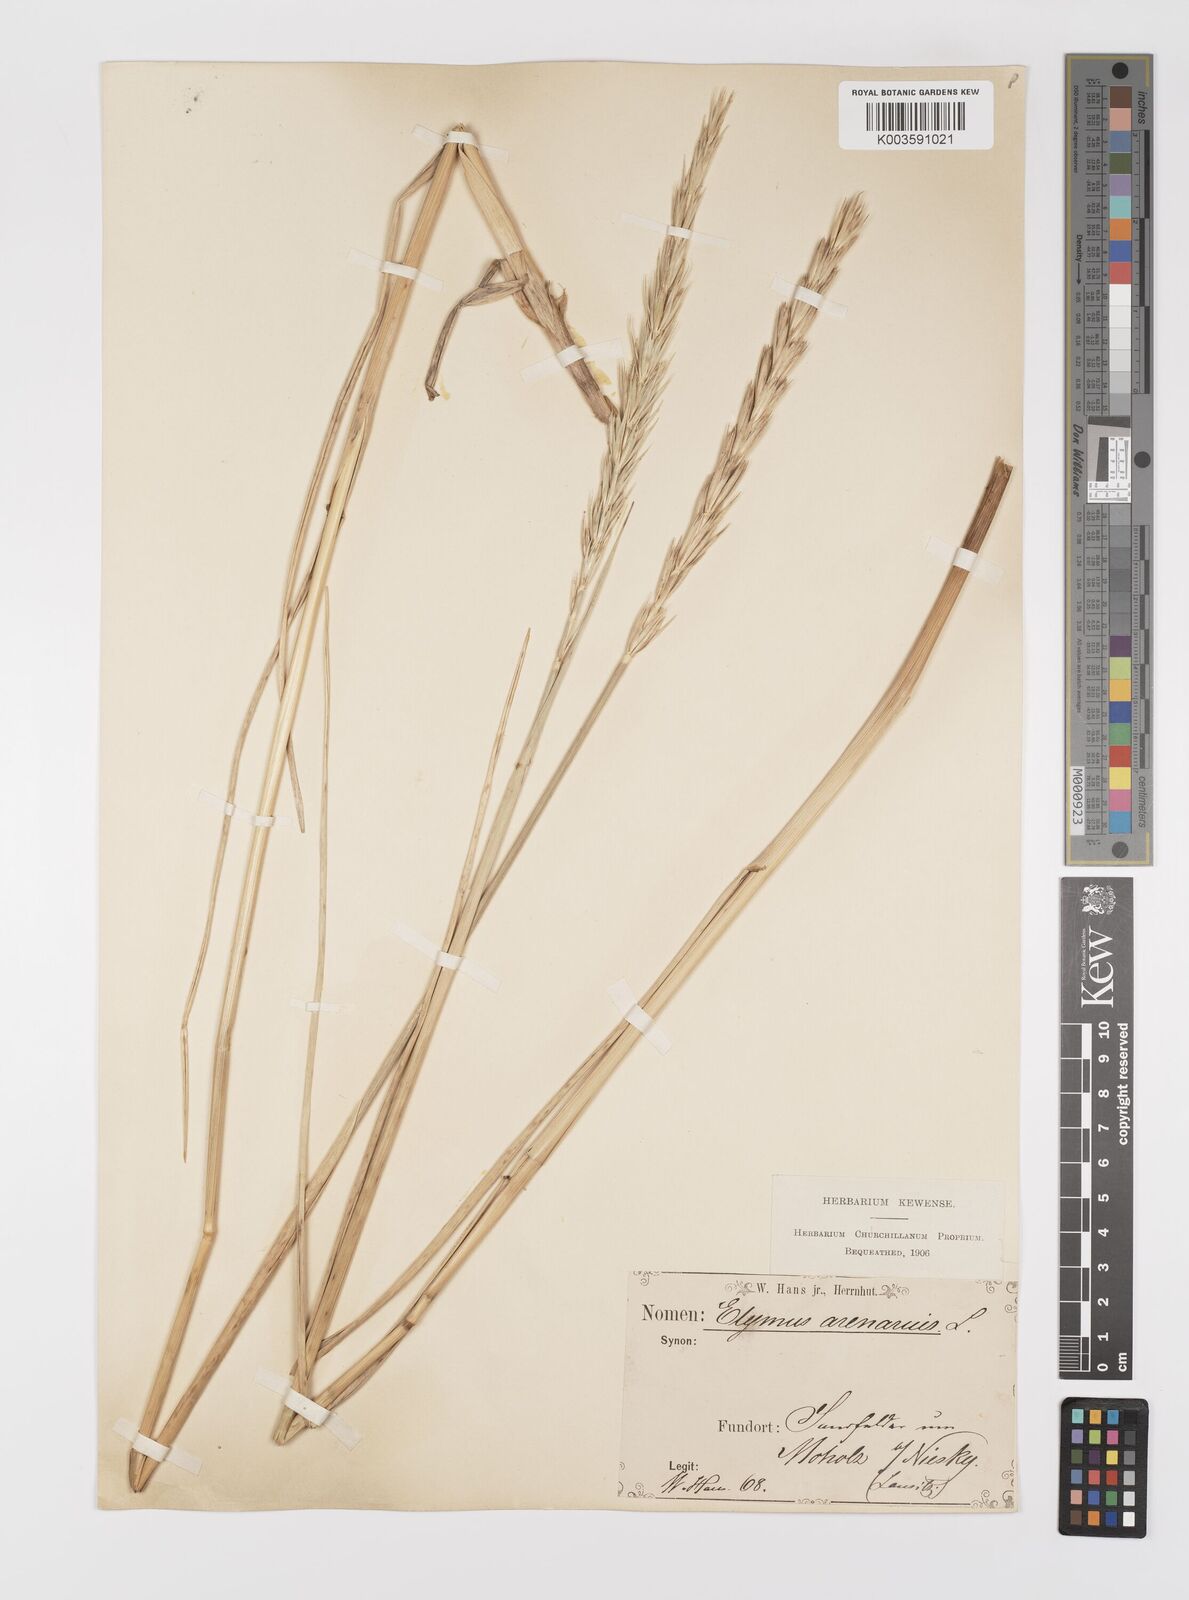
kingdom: Plantae
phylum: Tracheophyta
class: Liliopsida
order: Poales
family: Poaceae
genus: Leymus
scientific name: Leymus arenarius
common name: Lyme-grass
